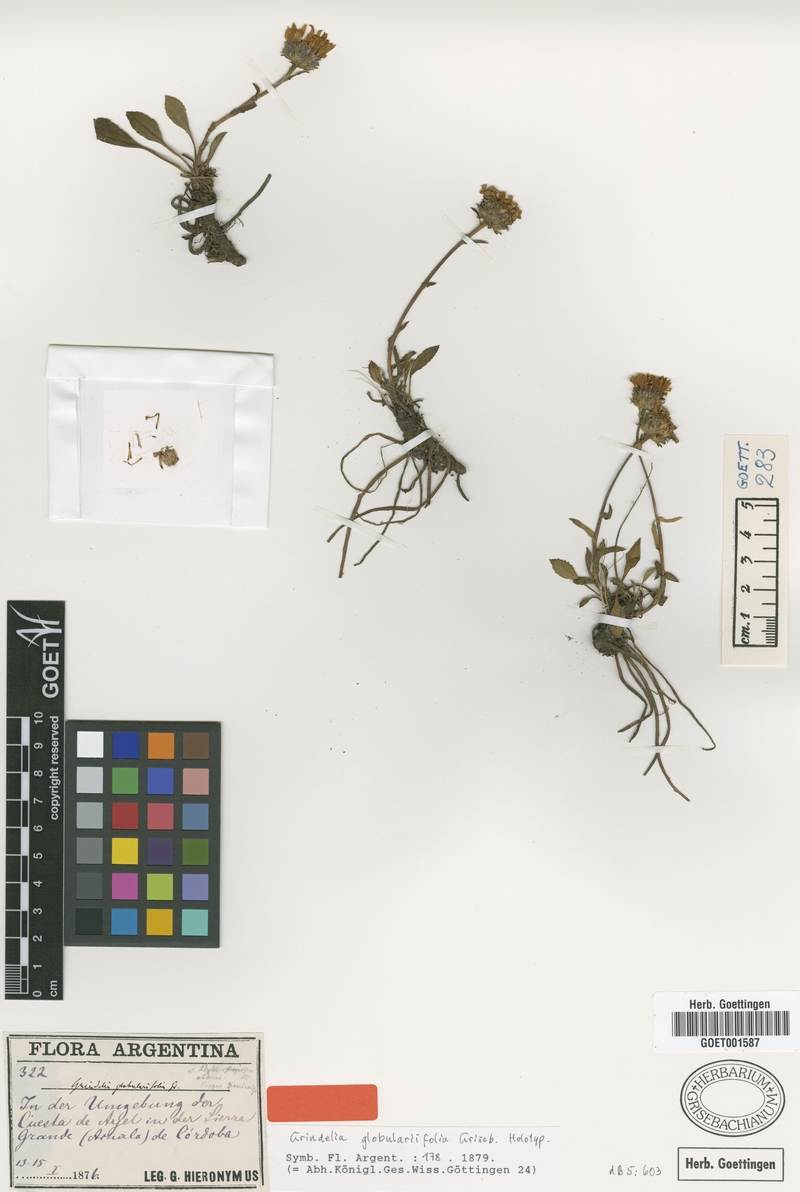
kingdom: Plantae
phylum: Tracheophyta
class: Magnoliopsida
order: Asterales
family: Asteraceae
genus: Grindelia
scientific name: Grindelia globularifolia
